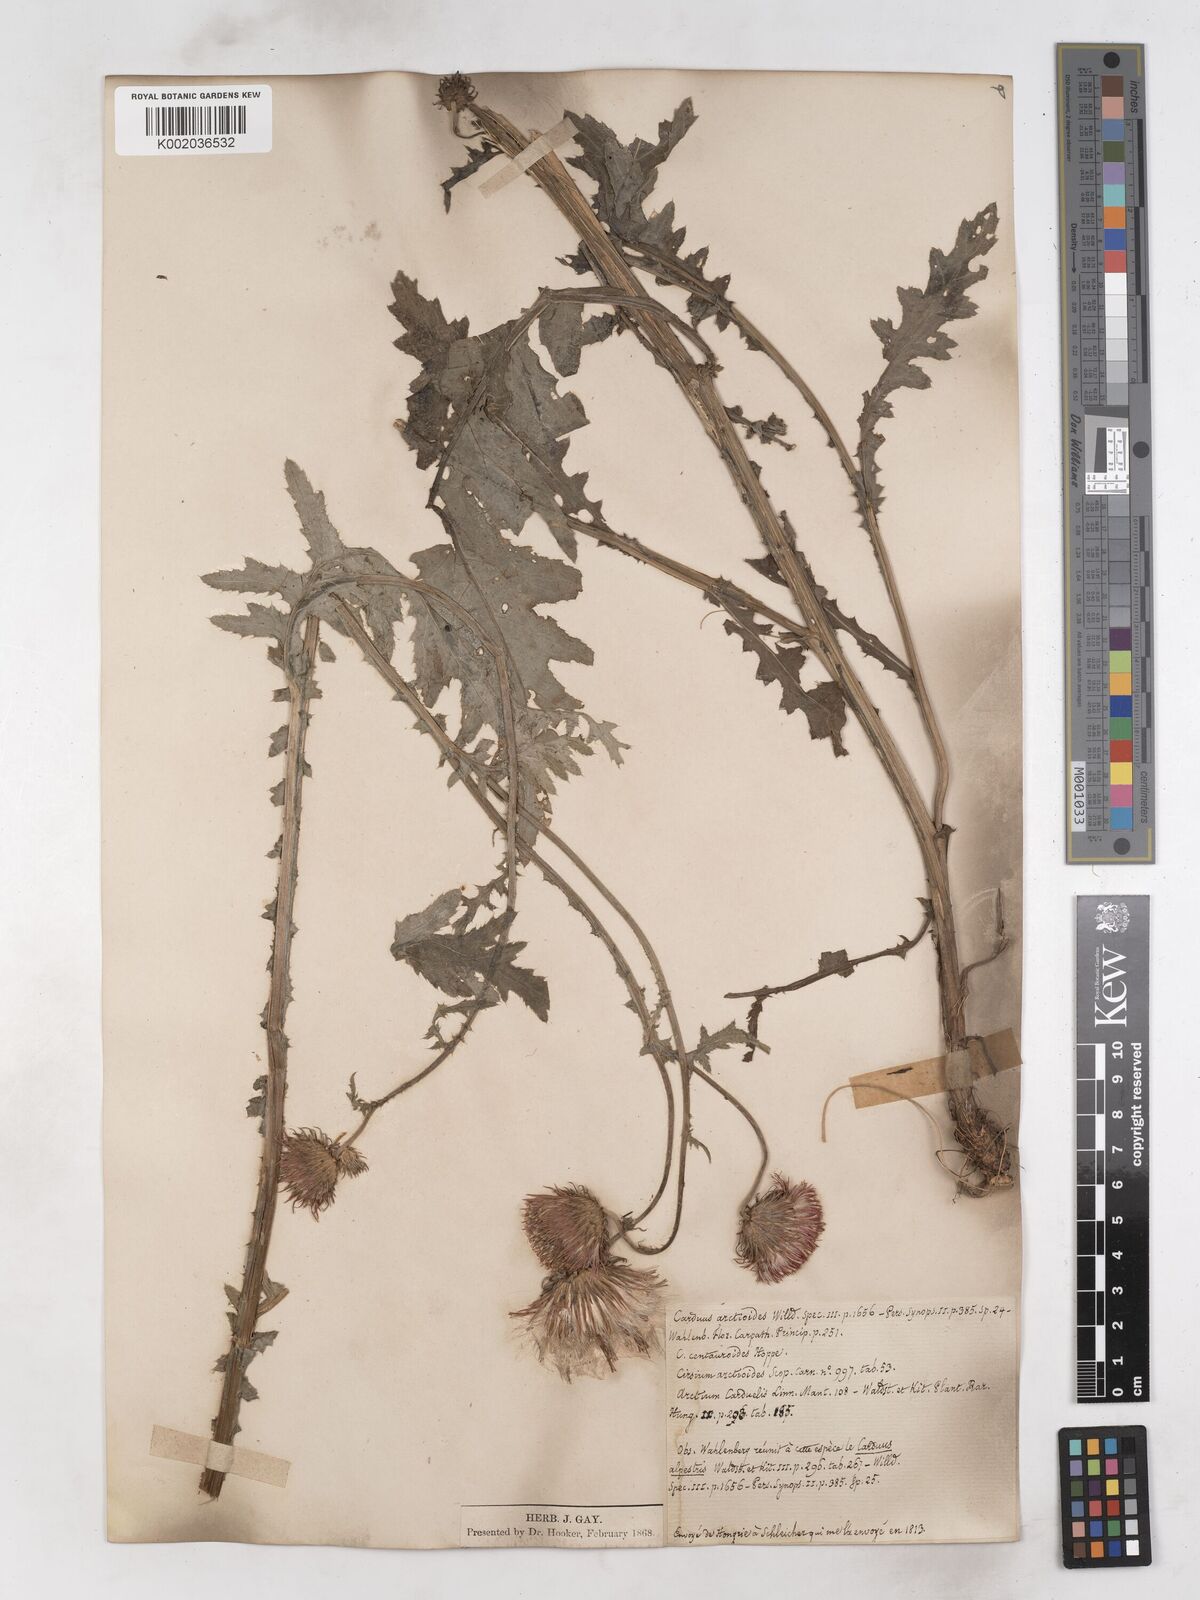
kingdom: Plantae
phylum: Tracheophyta
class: Magnoliopsida
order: Asterales
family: Asteraceae
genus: Carduus
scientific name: Carduus carduelis
